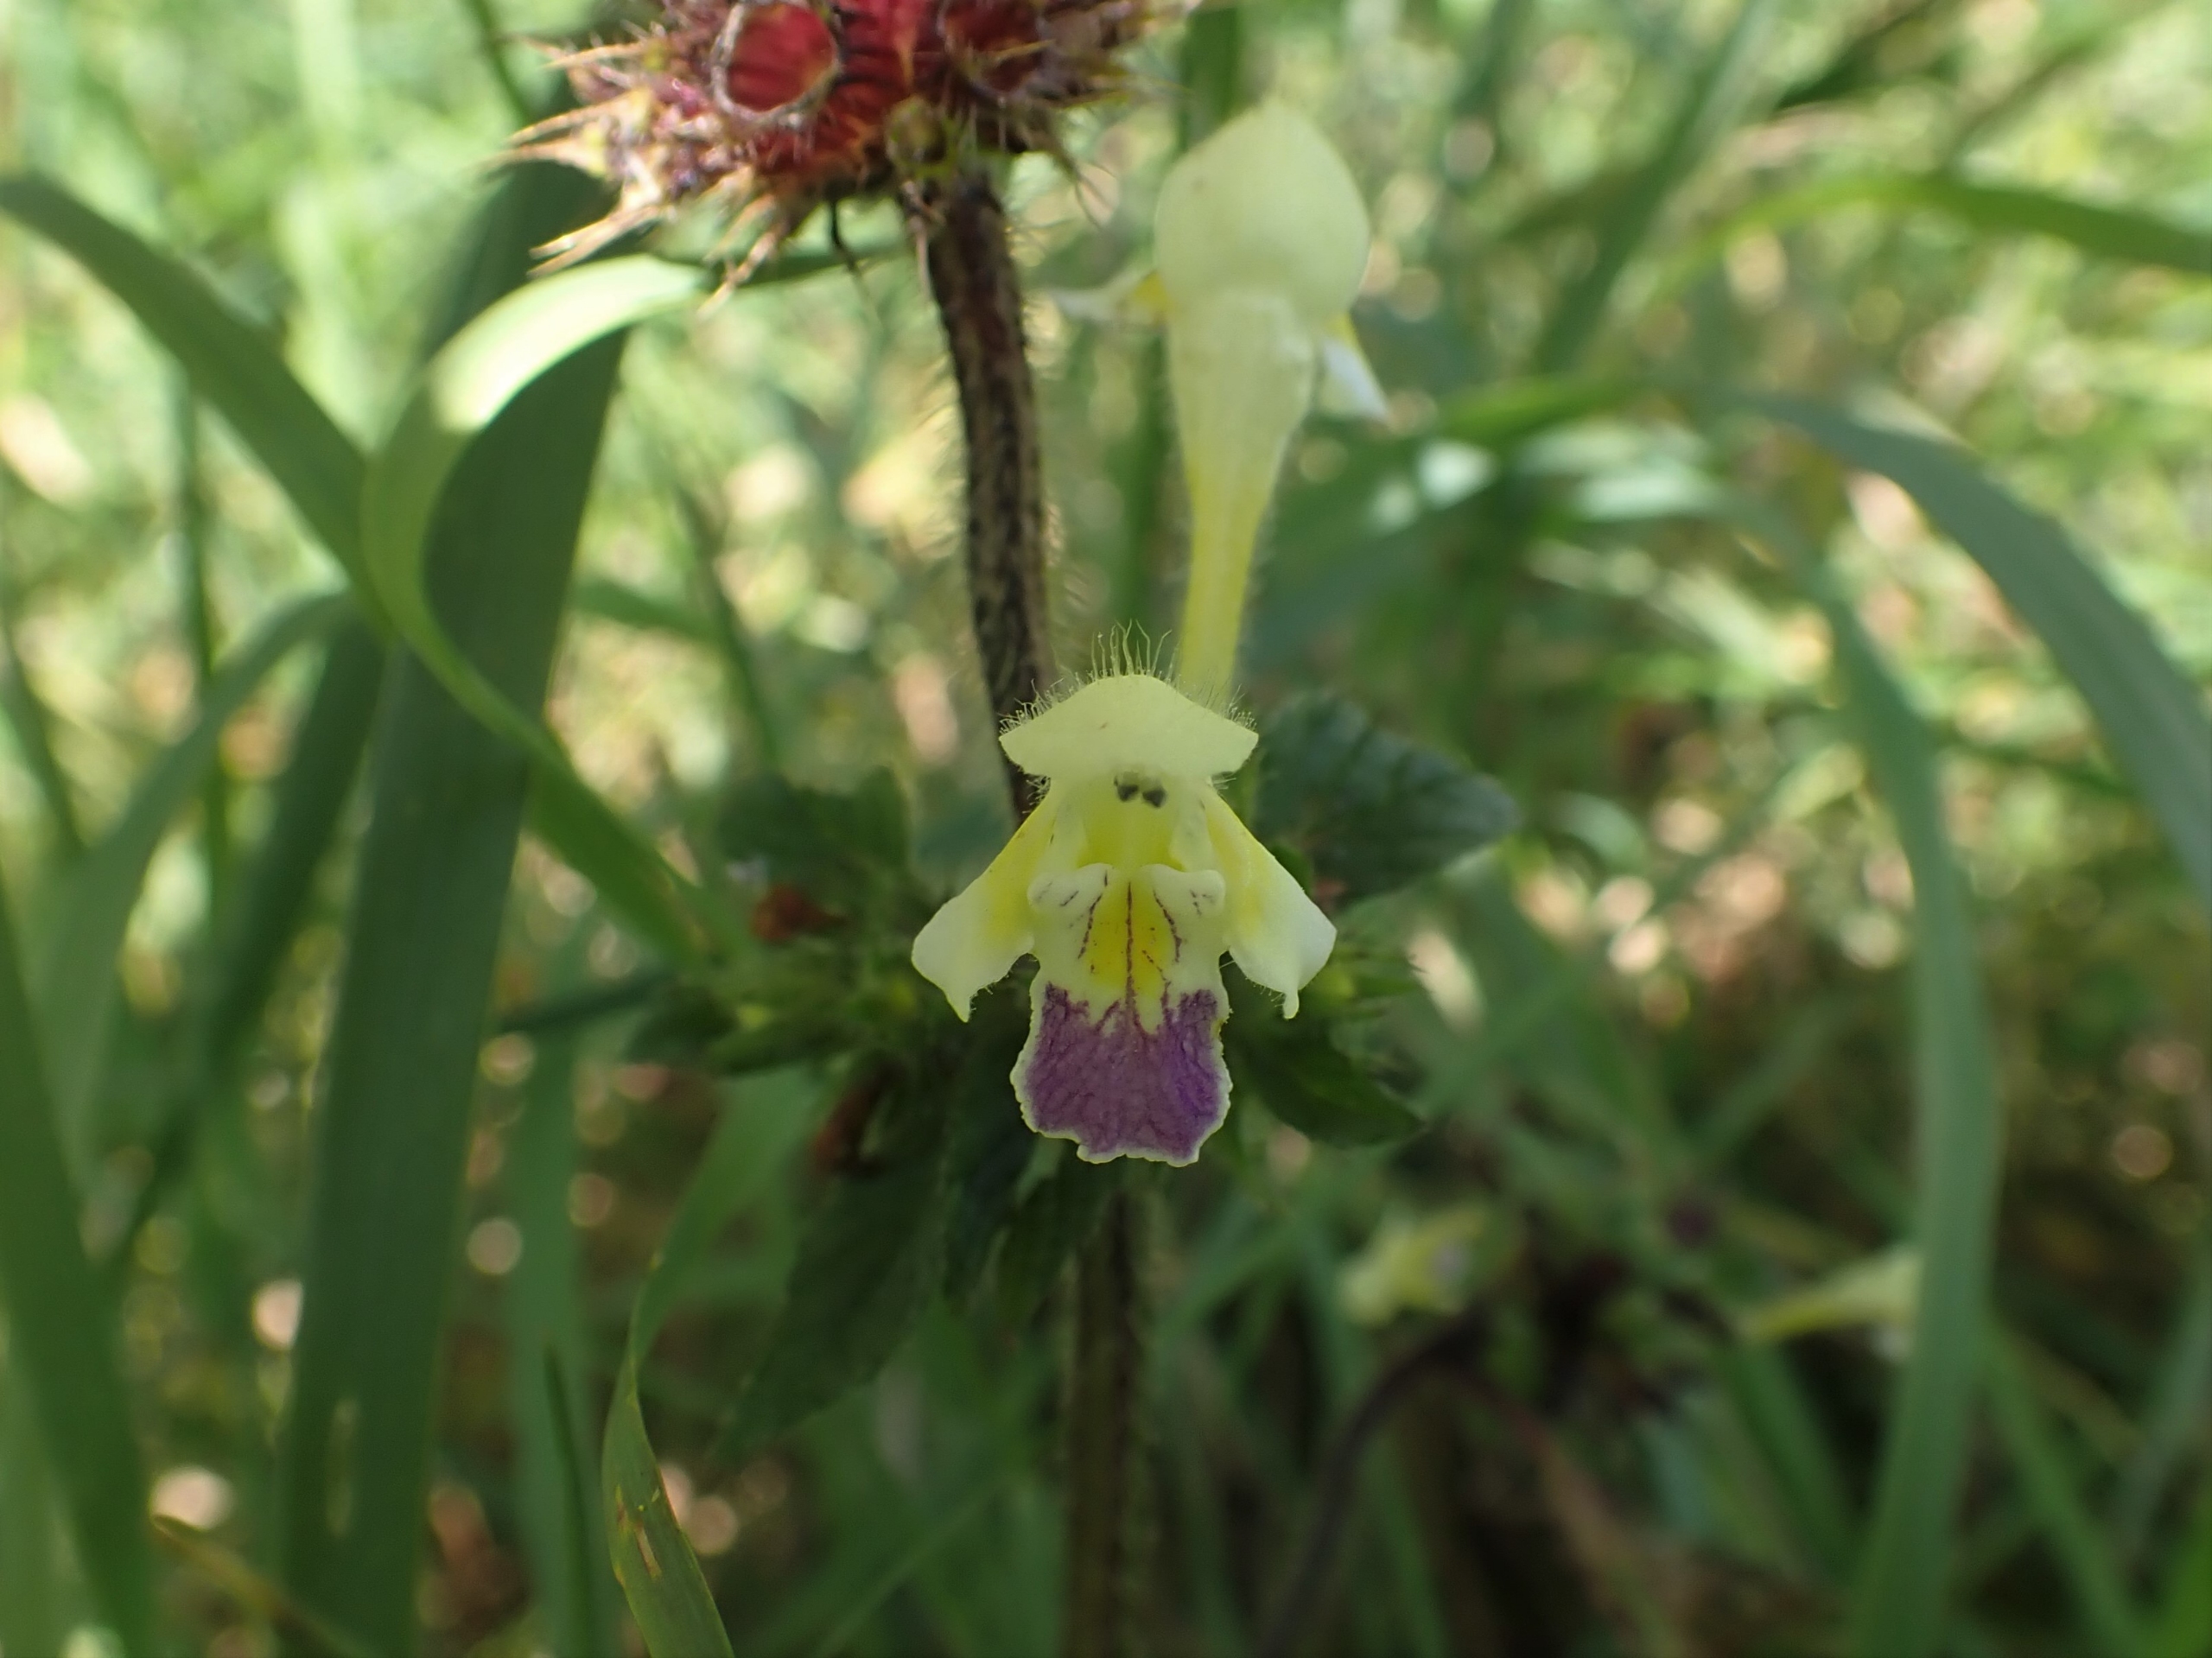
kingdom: Plantae
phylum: Tracheophyta
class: Magnoliopsida
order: Lamiales
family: Lamiaceae
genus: Galeopsis
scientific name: Galeopsis speciosa
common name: Hamp-hanekro
